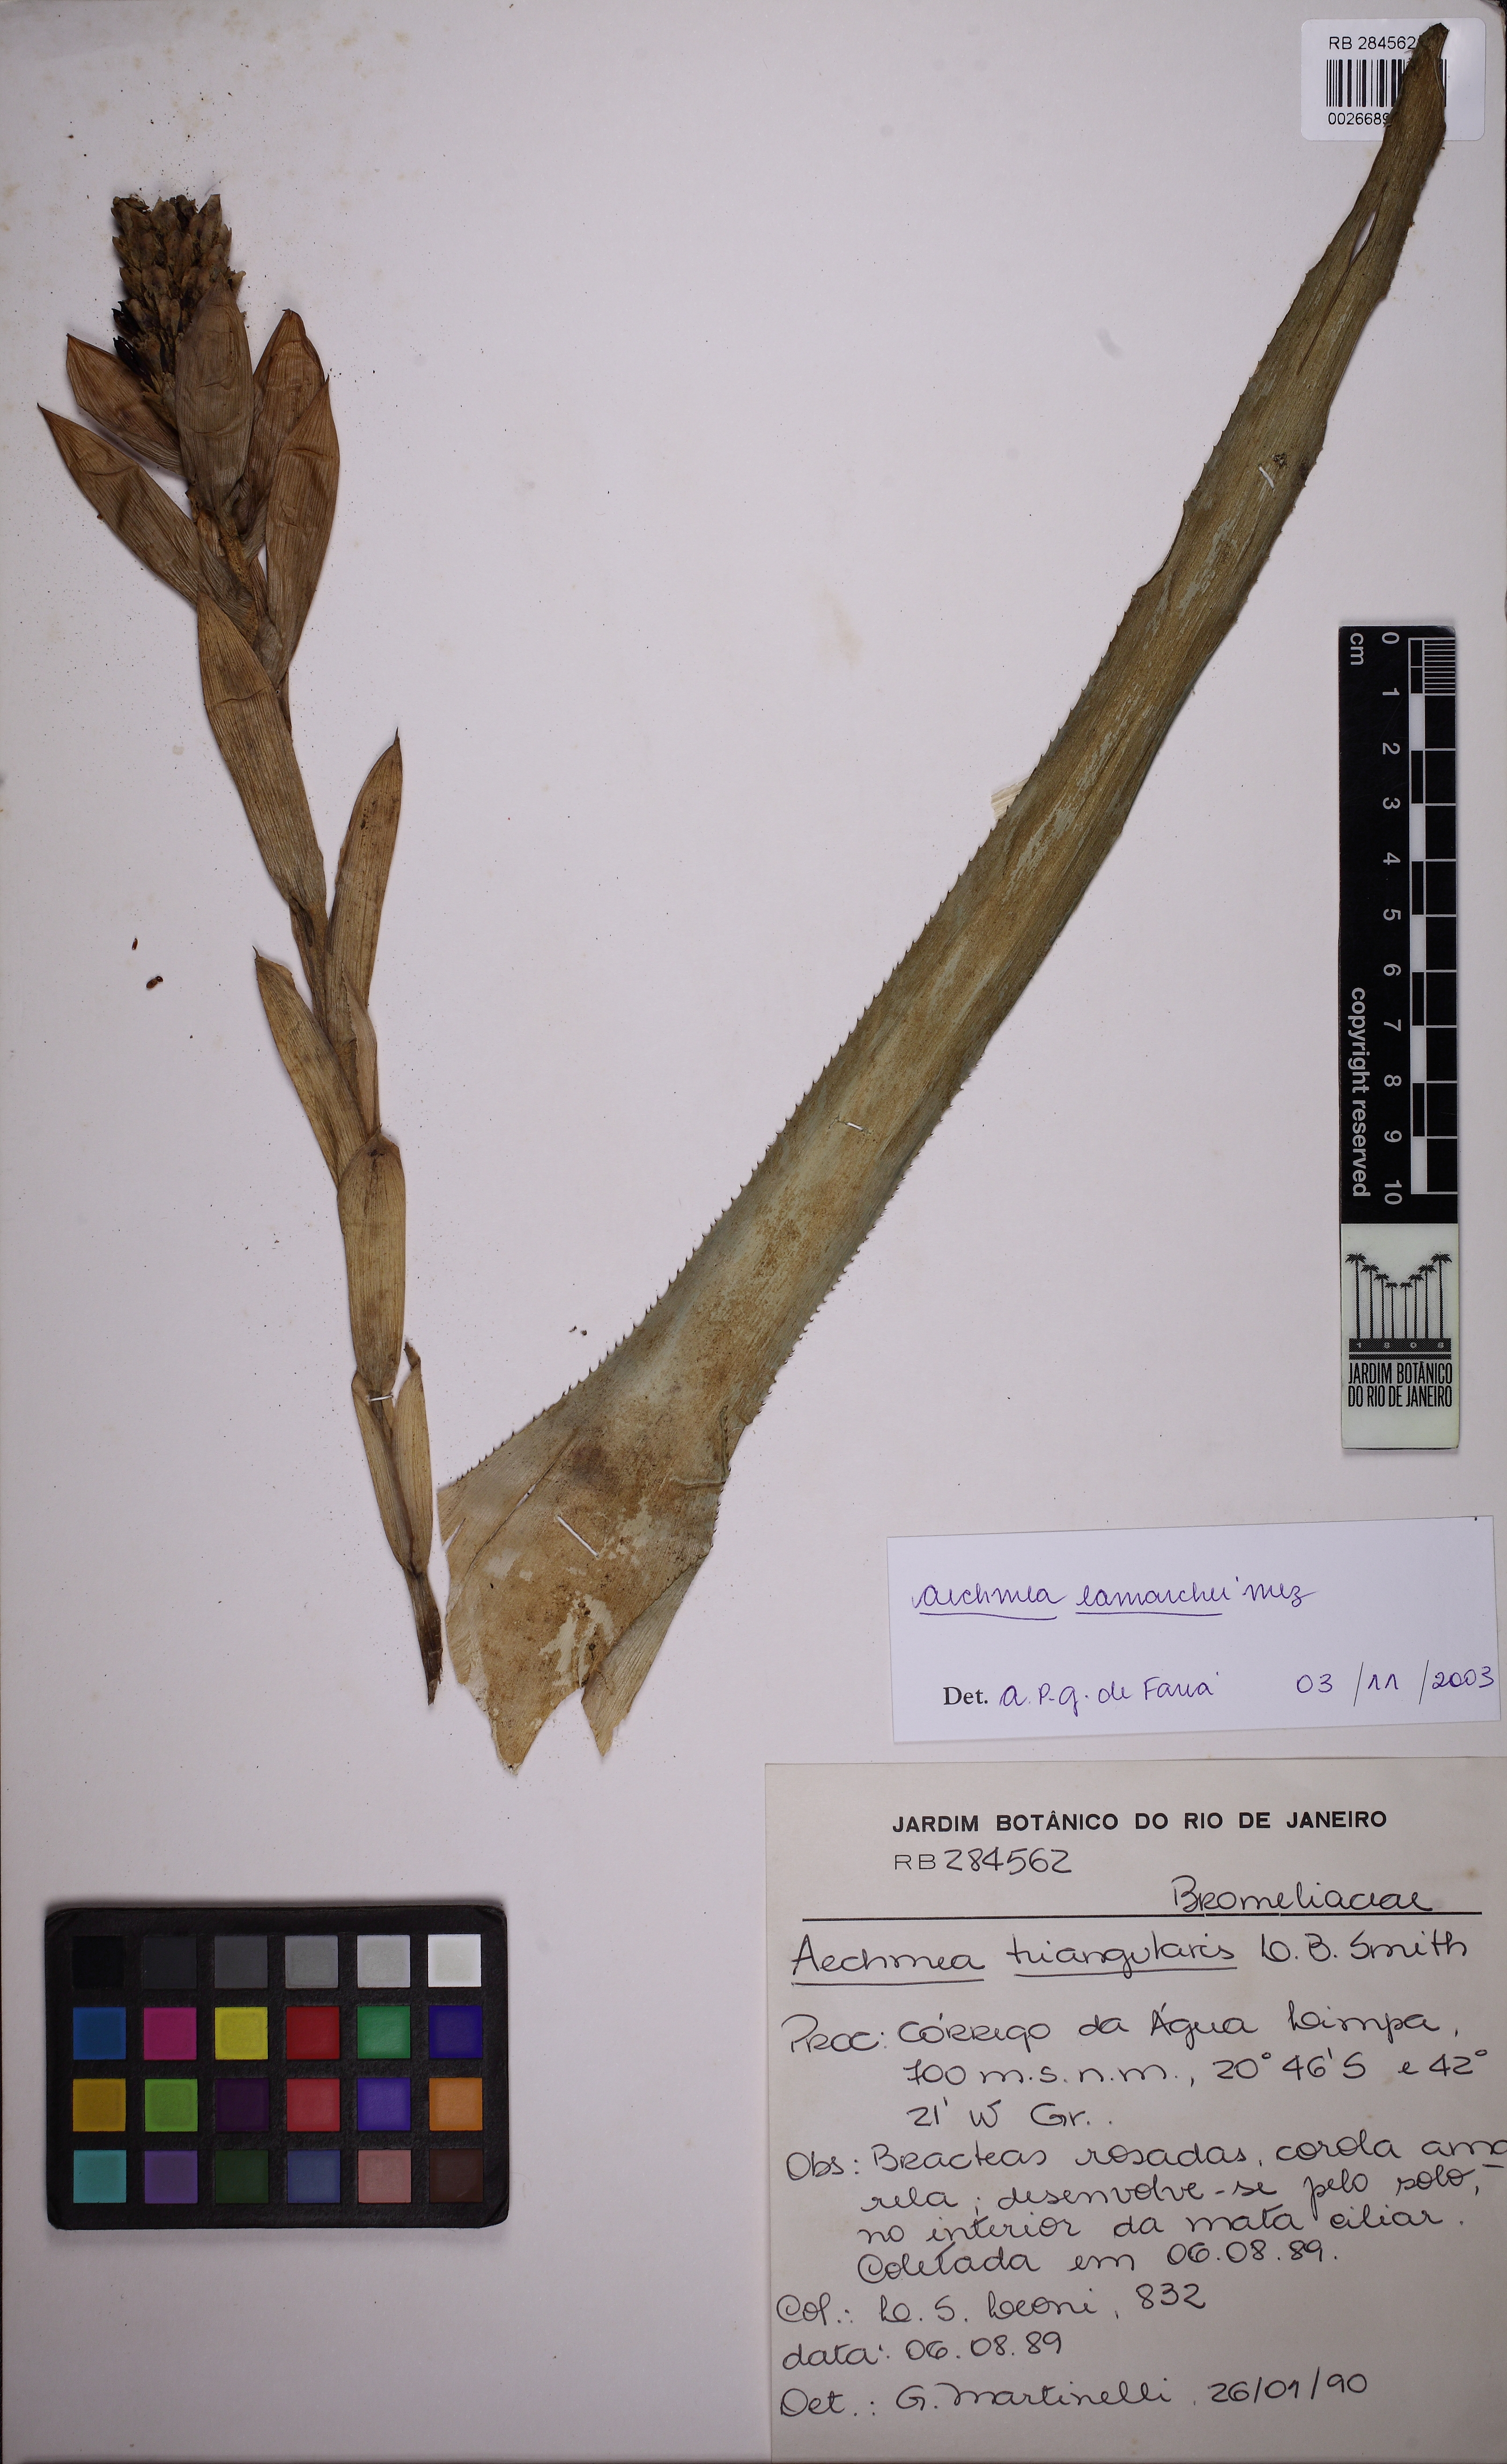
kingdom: Plantae
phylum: Tracheophyta
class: Liliopsida
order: Poales
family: Bromeliaceae
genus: Aechmea
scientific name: Aechmea lamarchei
